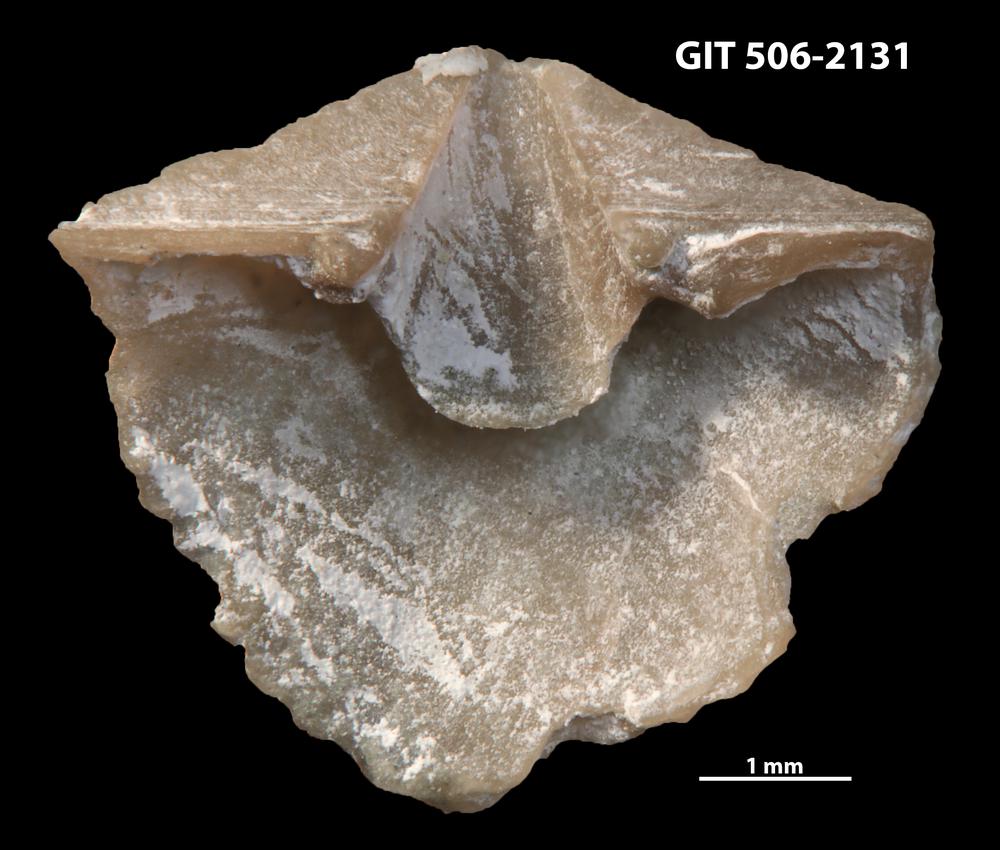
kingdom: Animalia
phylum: Brachiopoda
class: Rhynchonellata
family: Skenidiidae
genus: Skenidioides
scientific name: Skenidioides hymiri
